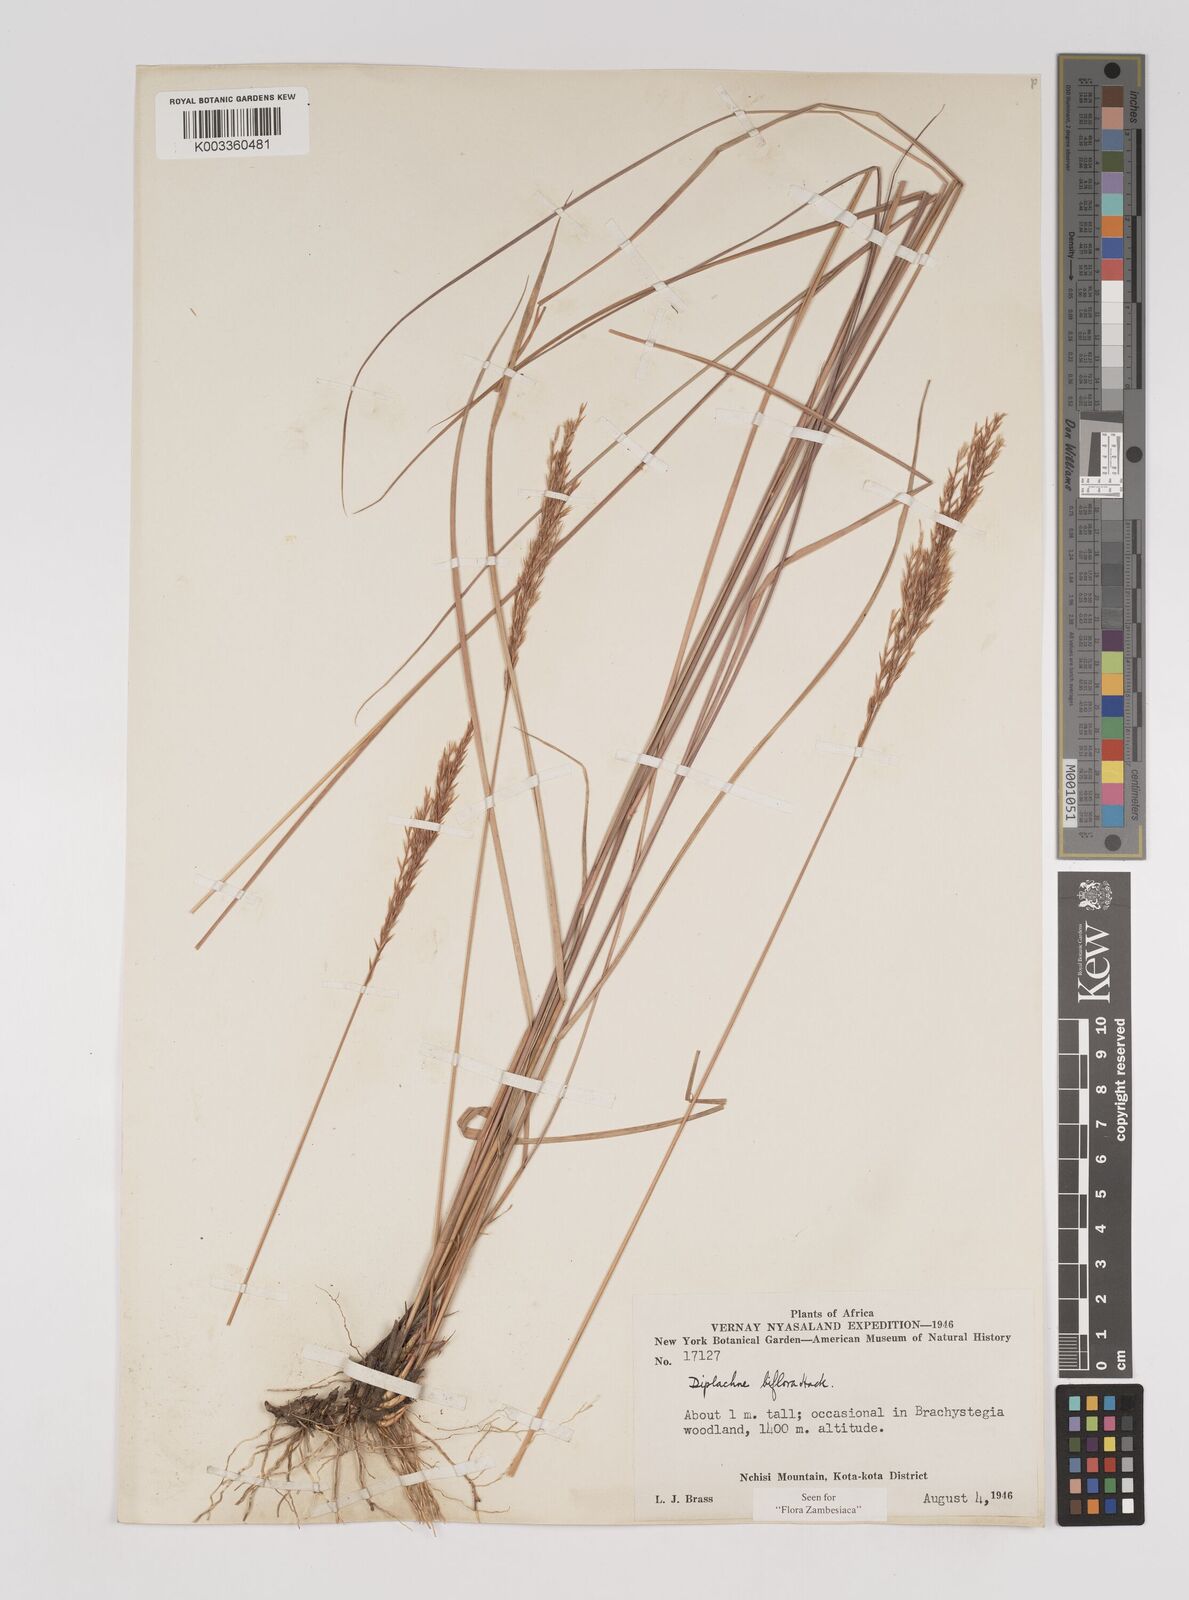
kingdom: Plantae
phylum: Tracheophyta
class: Liliopsida
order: Poales
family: Poaceae
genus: Bewsia
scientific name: Bewsia biflora
